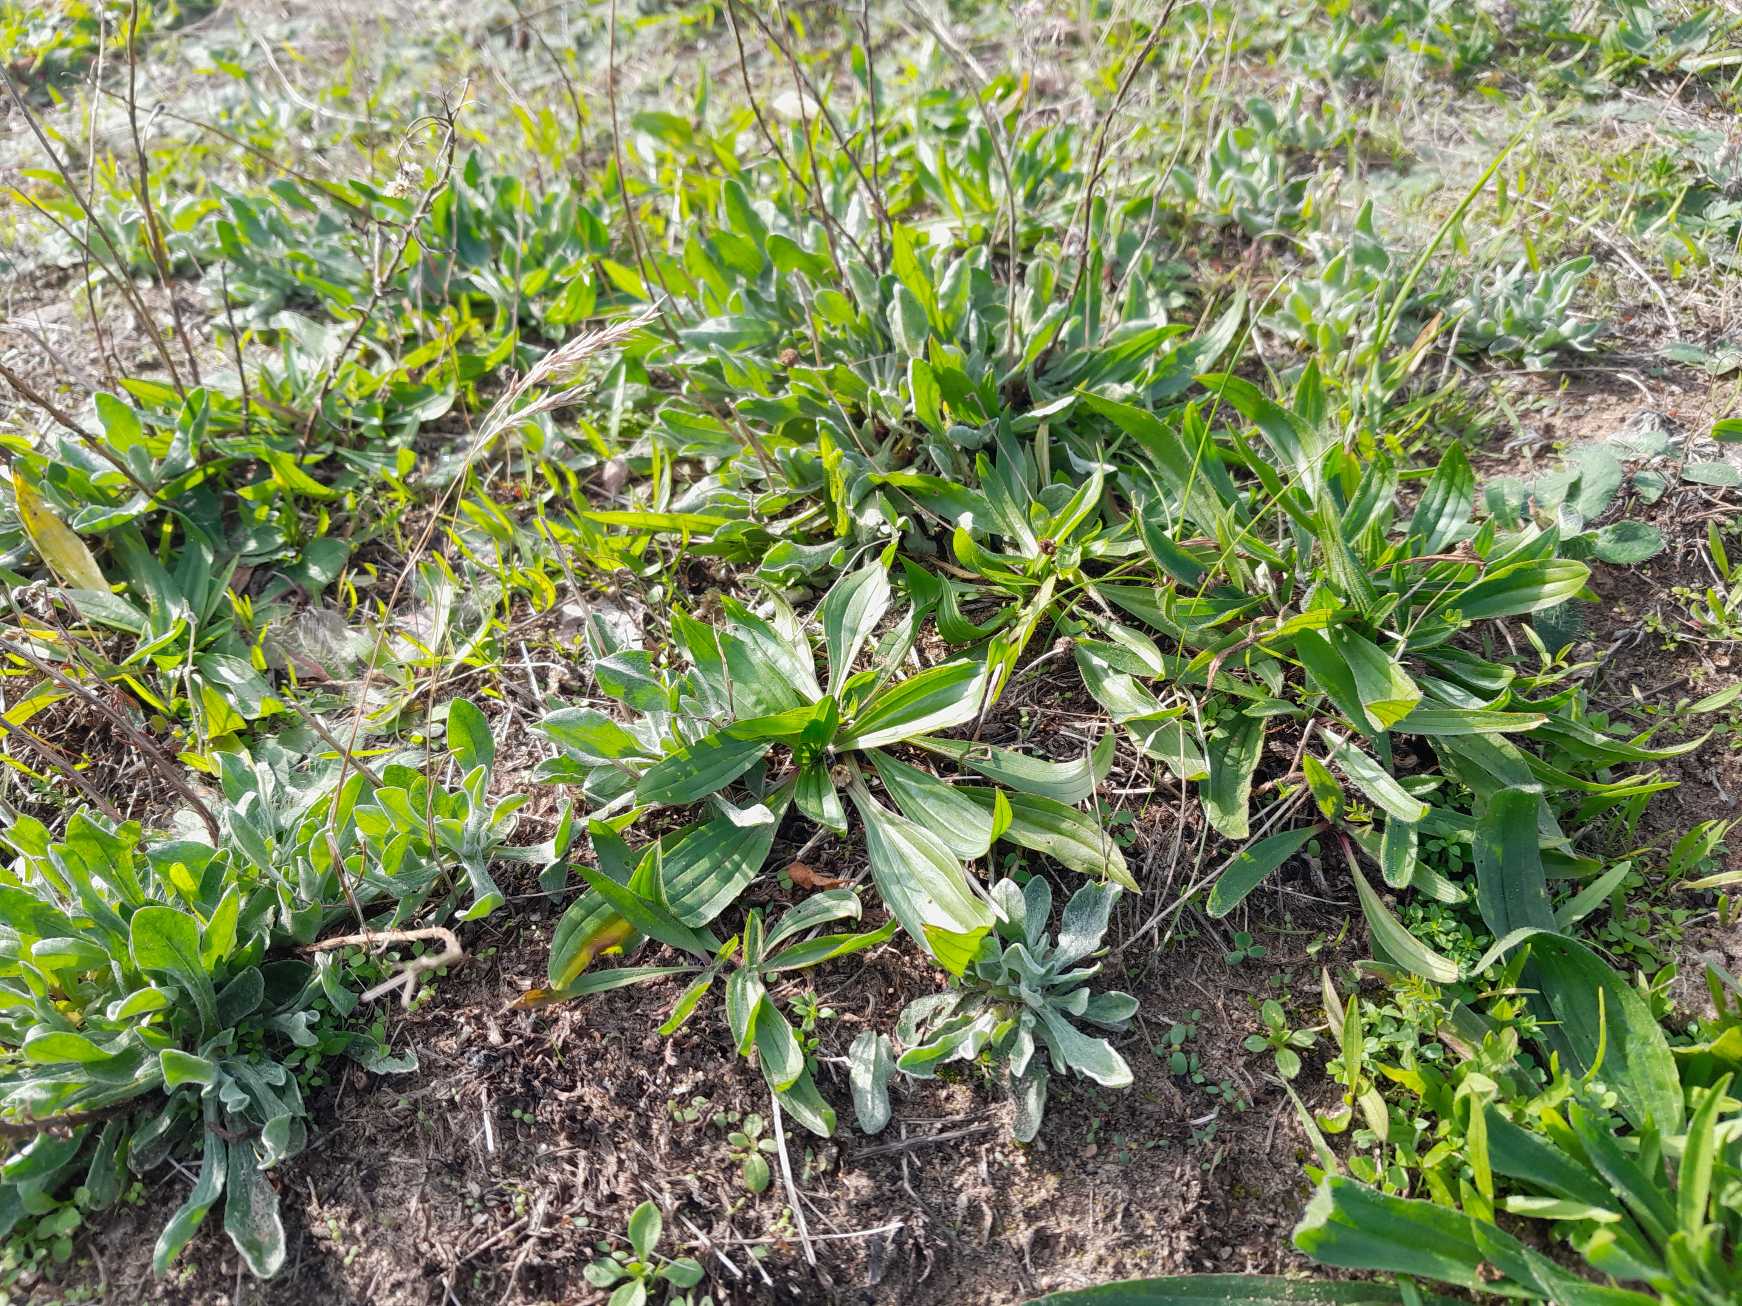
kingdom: Plantae
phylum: Tracheophyta
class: Magnoliopsida
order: Asterales
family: Asteraceae
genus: Helichrysum
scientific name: Helichrysum arenarium
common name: Gul evighedsblomst
